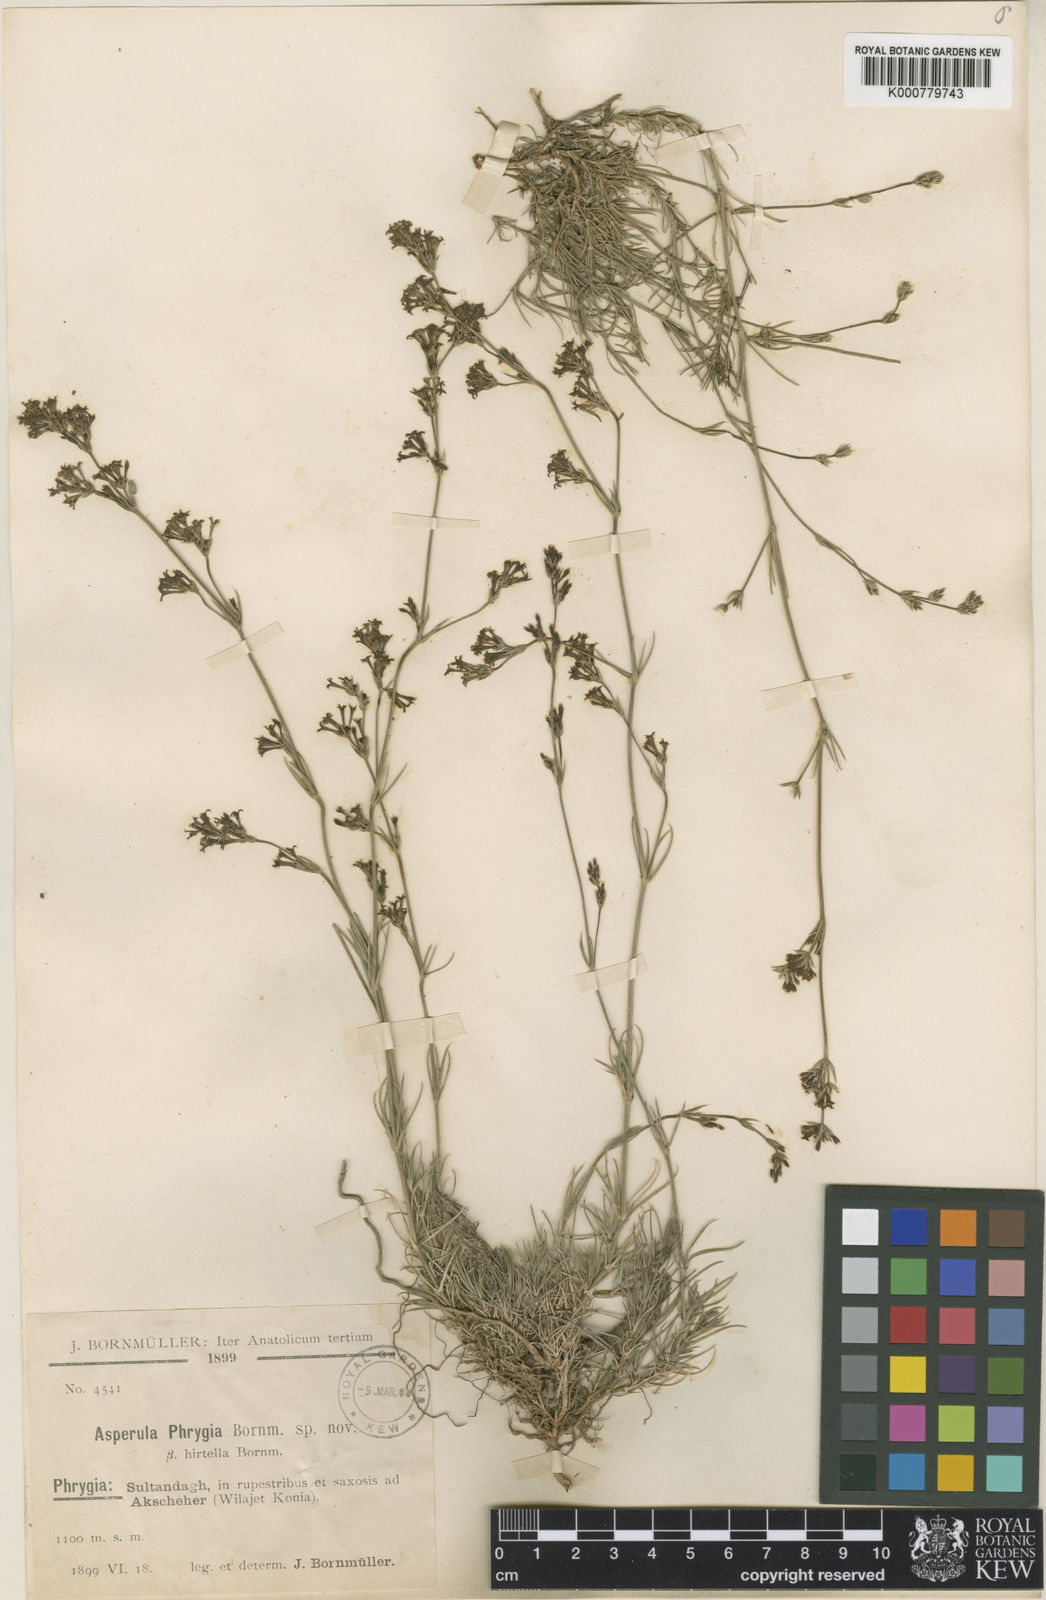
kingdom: Plantae
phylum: Tracheophyta
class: Magnoliopsida
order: Gentianales
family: Rubiaceae
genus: Cynanchica
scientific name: Cynanchica stricta
